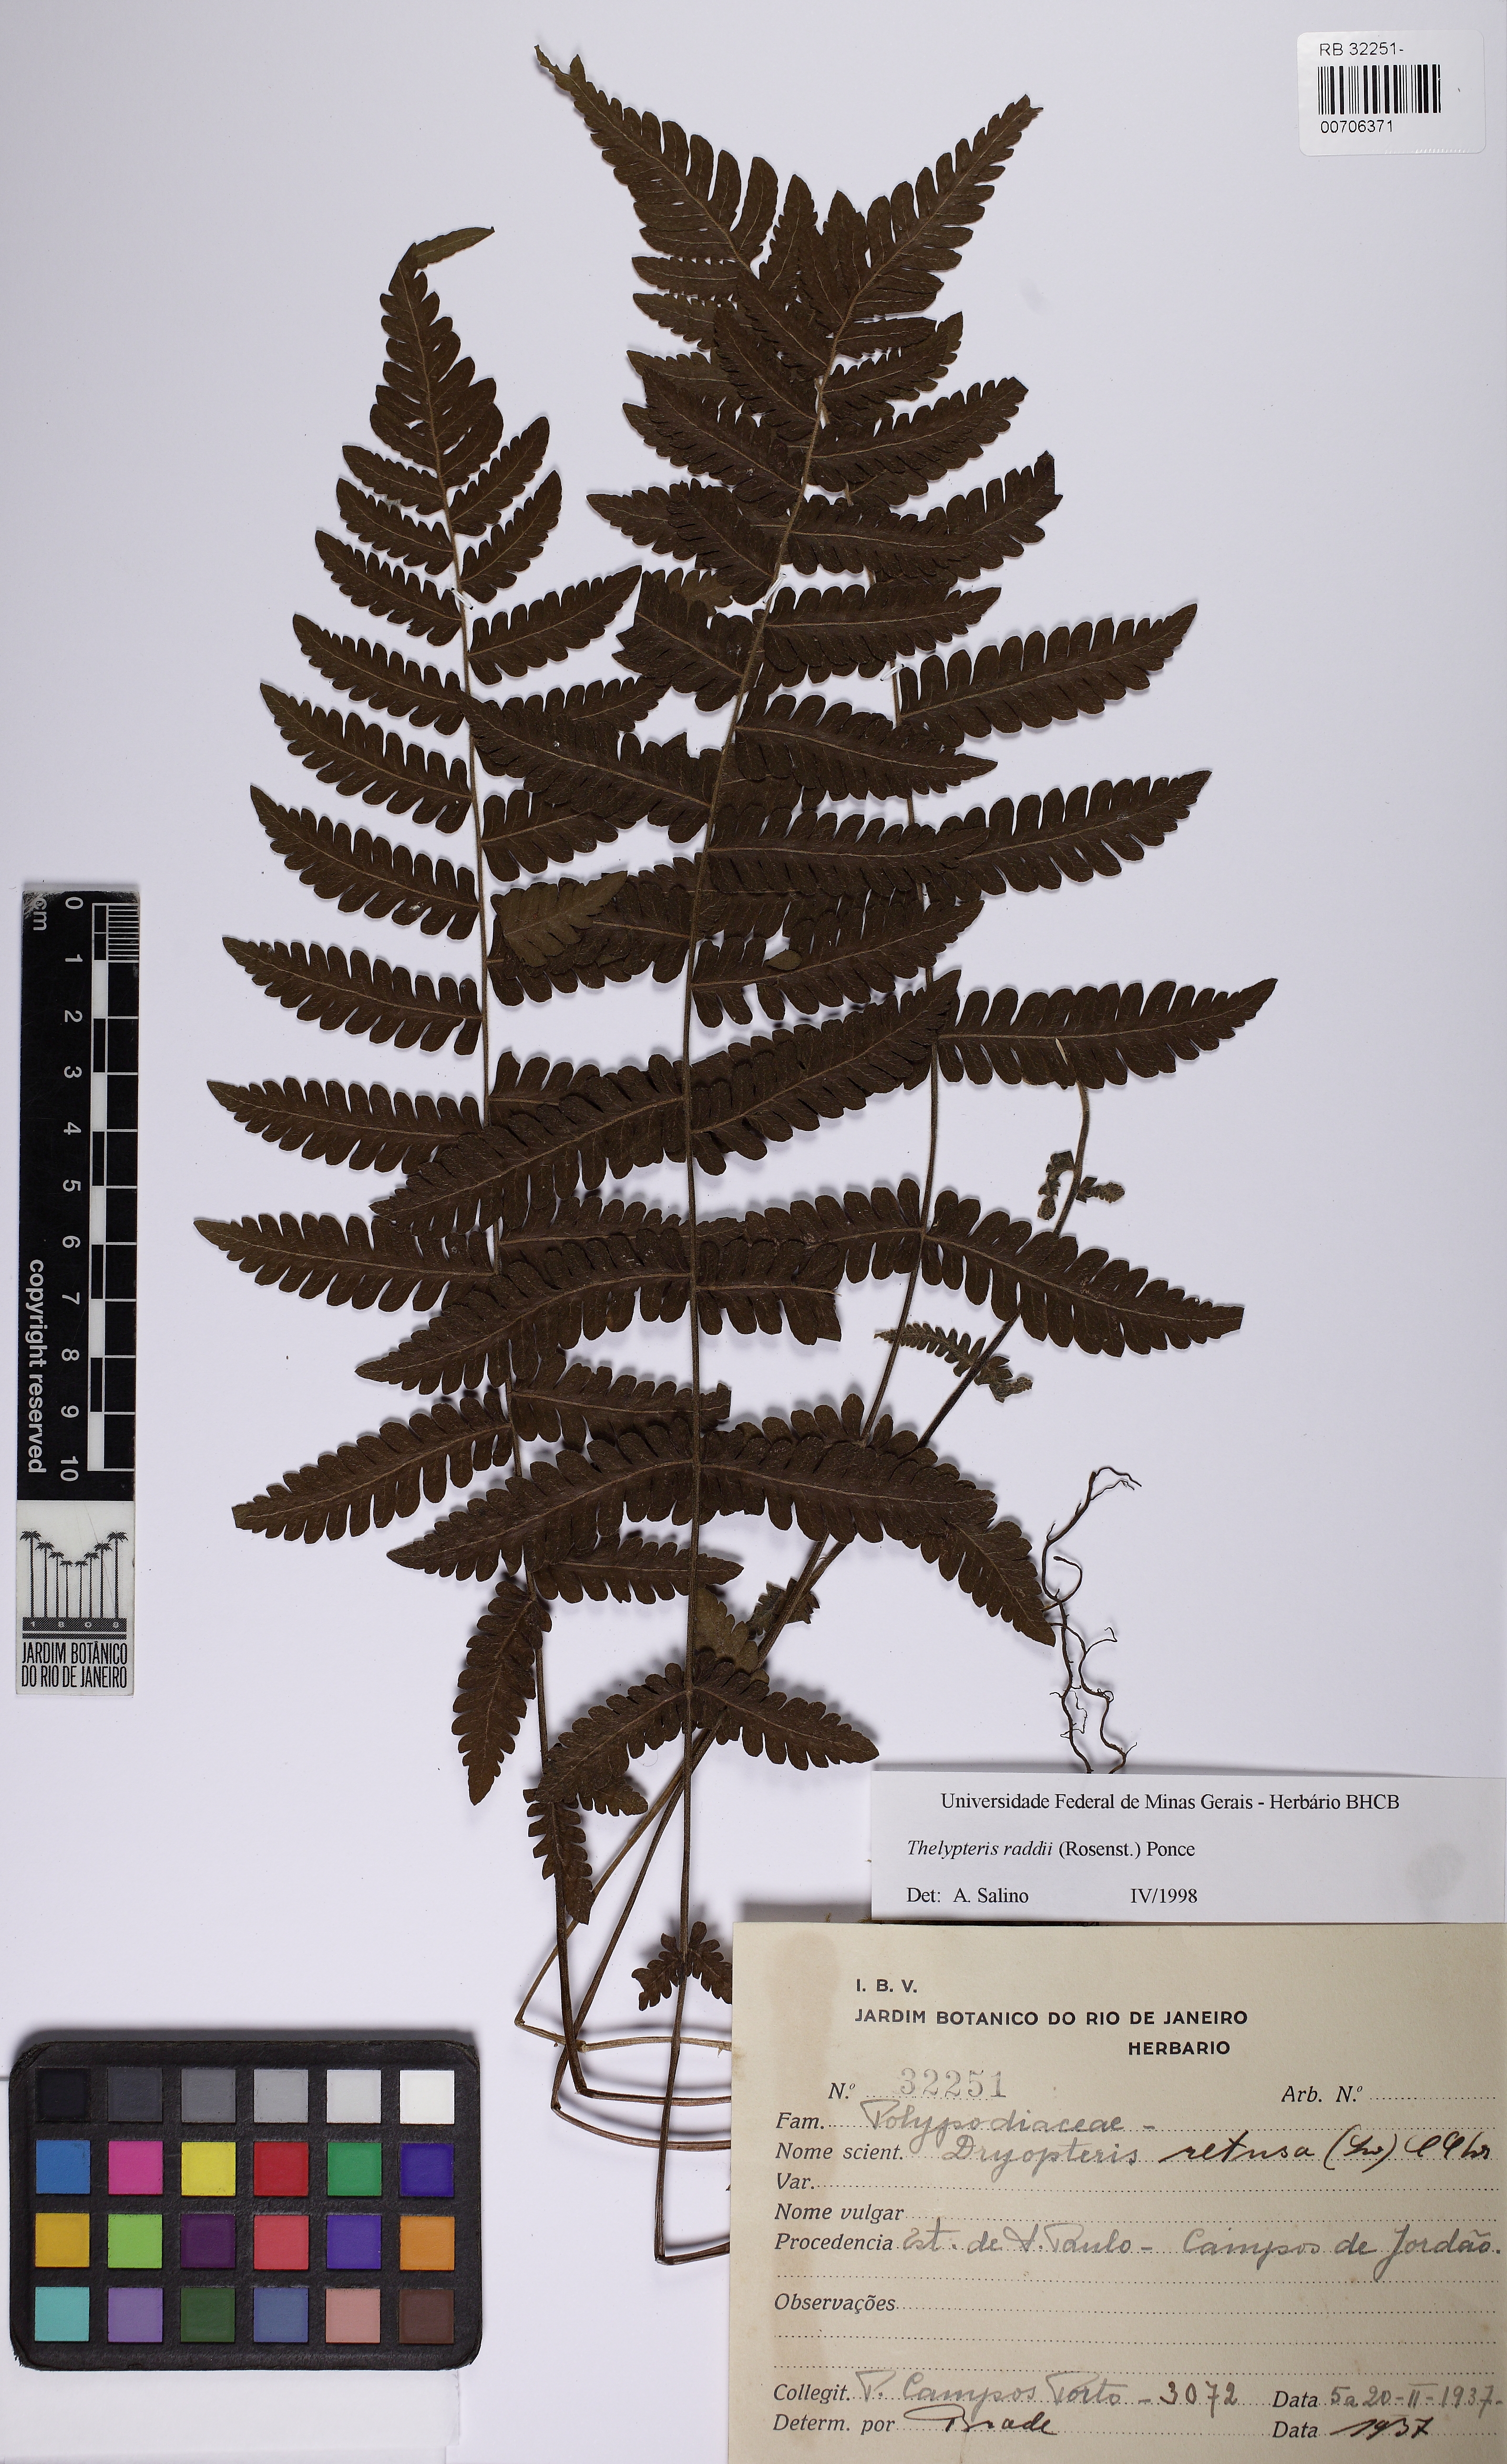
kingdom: Plantae
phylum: Tracheophyta
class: Polypodiopsida
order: Polypodiales
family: Thelypteridaceae
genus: Amauropelta
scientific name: Amauropelta raddii
